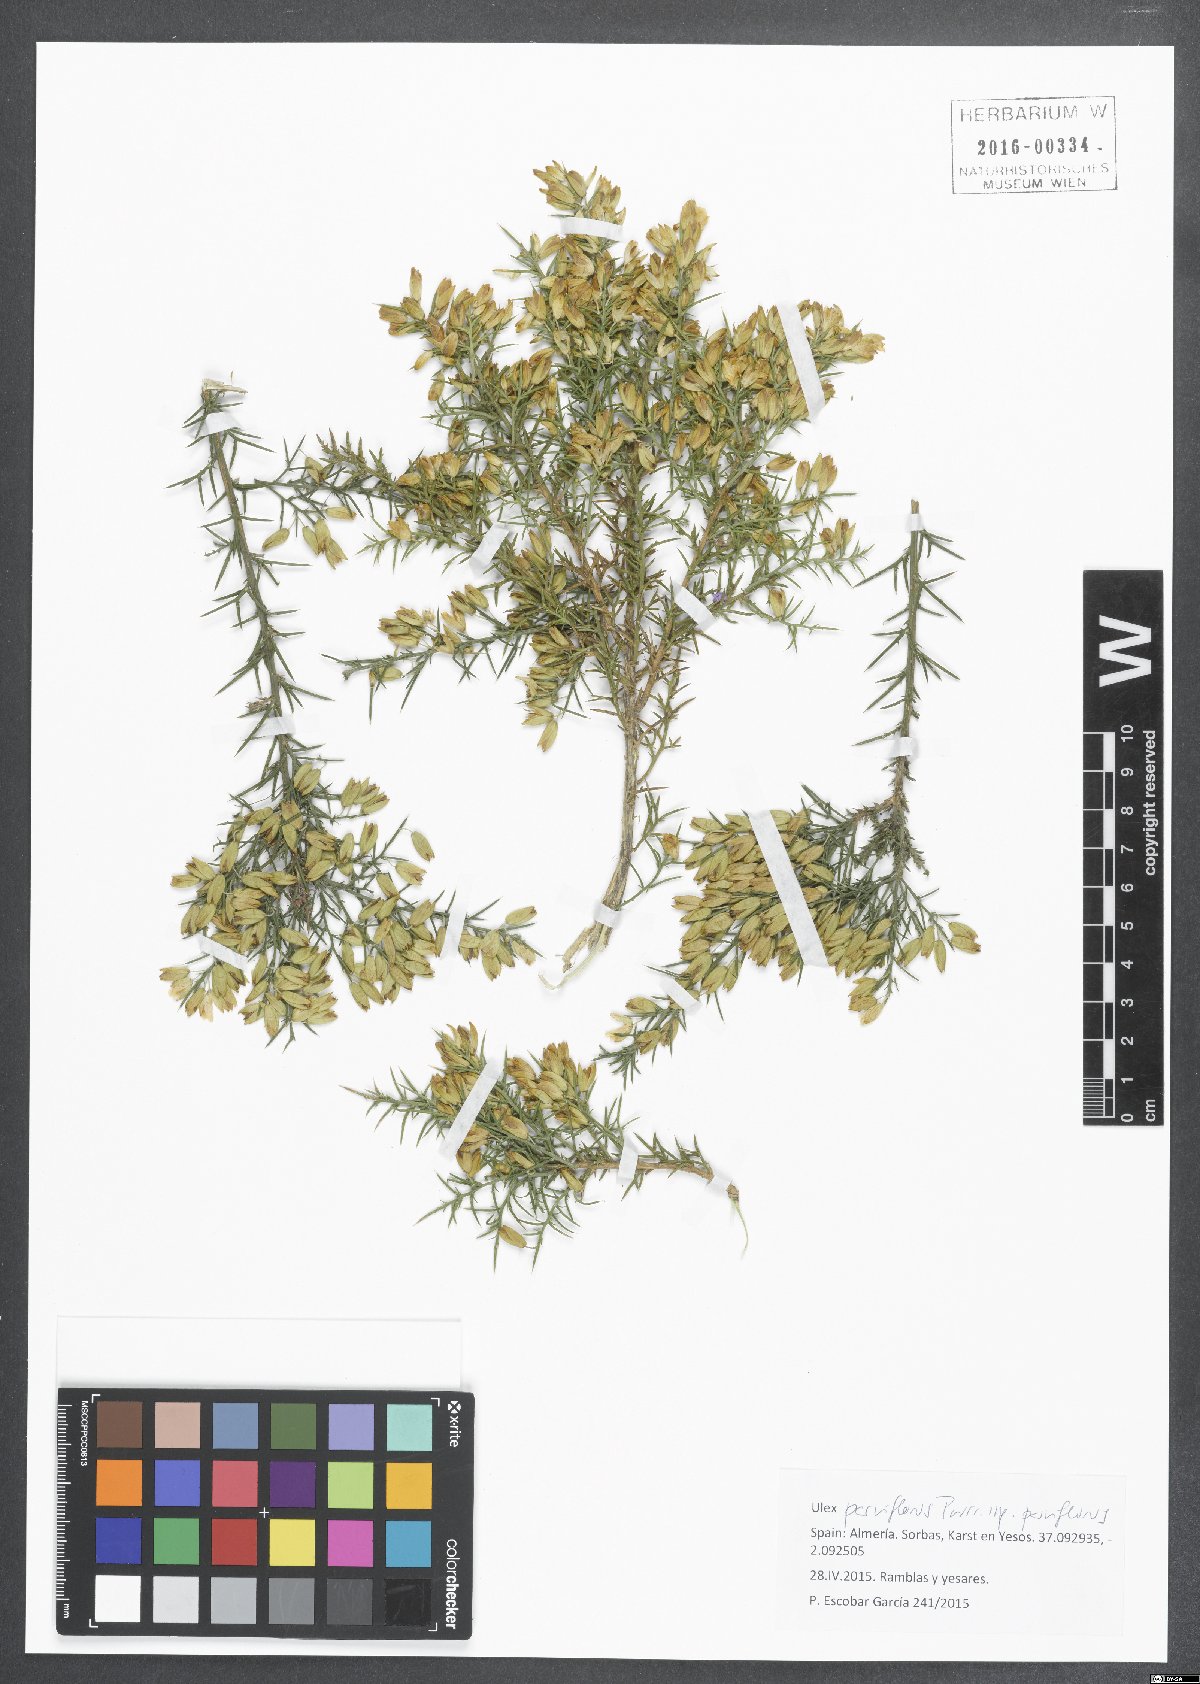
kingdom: Plantae
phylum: Tracheophyta
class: Magnoliopsida
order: Fabales
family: Fabaceae
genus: Ulex
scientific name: Ulex parviflorus
